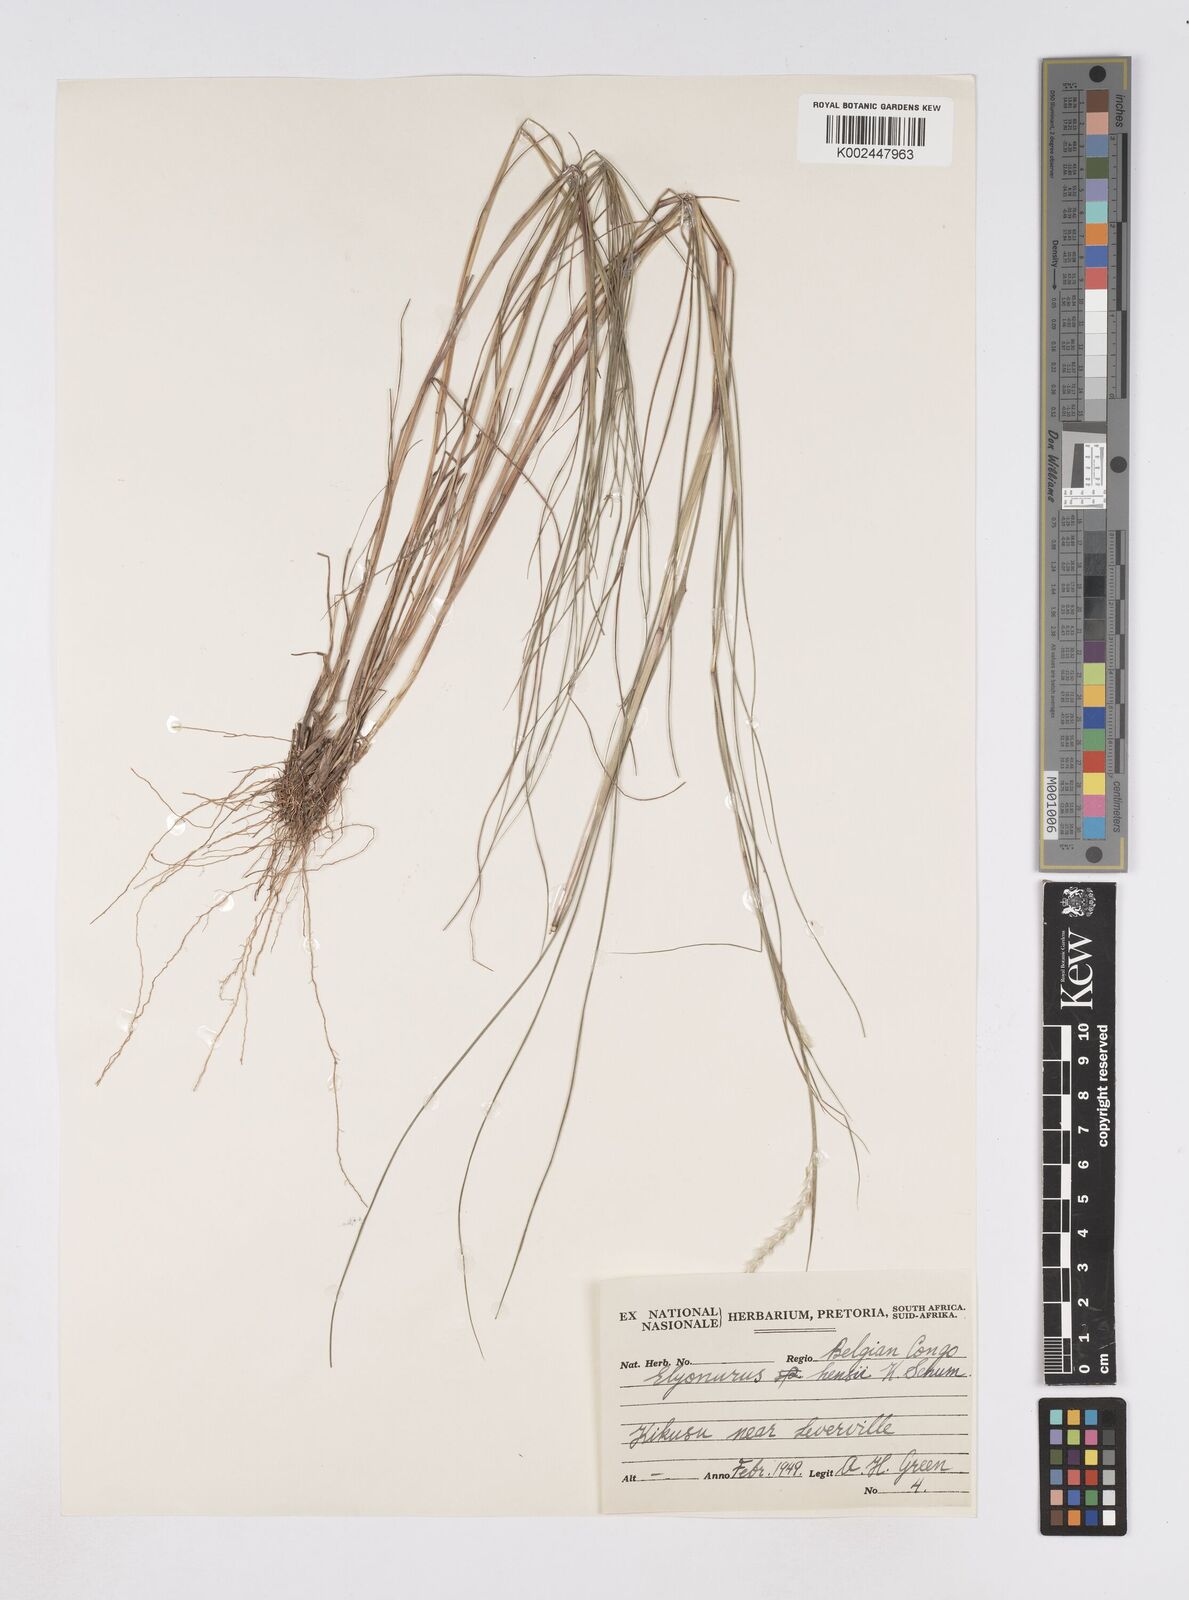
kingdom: Plantae
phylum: Tracheophyta
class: Liliopsida
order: Poales
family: Poaceae
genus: Elionurus
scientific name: Elionurus hensii
